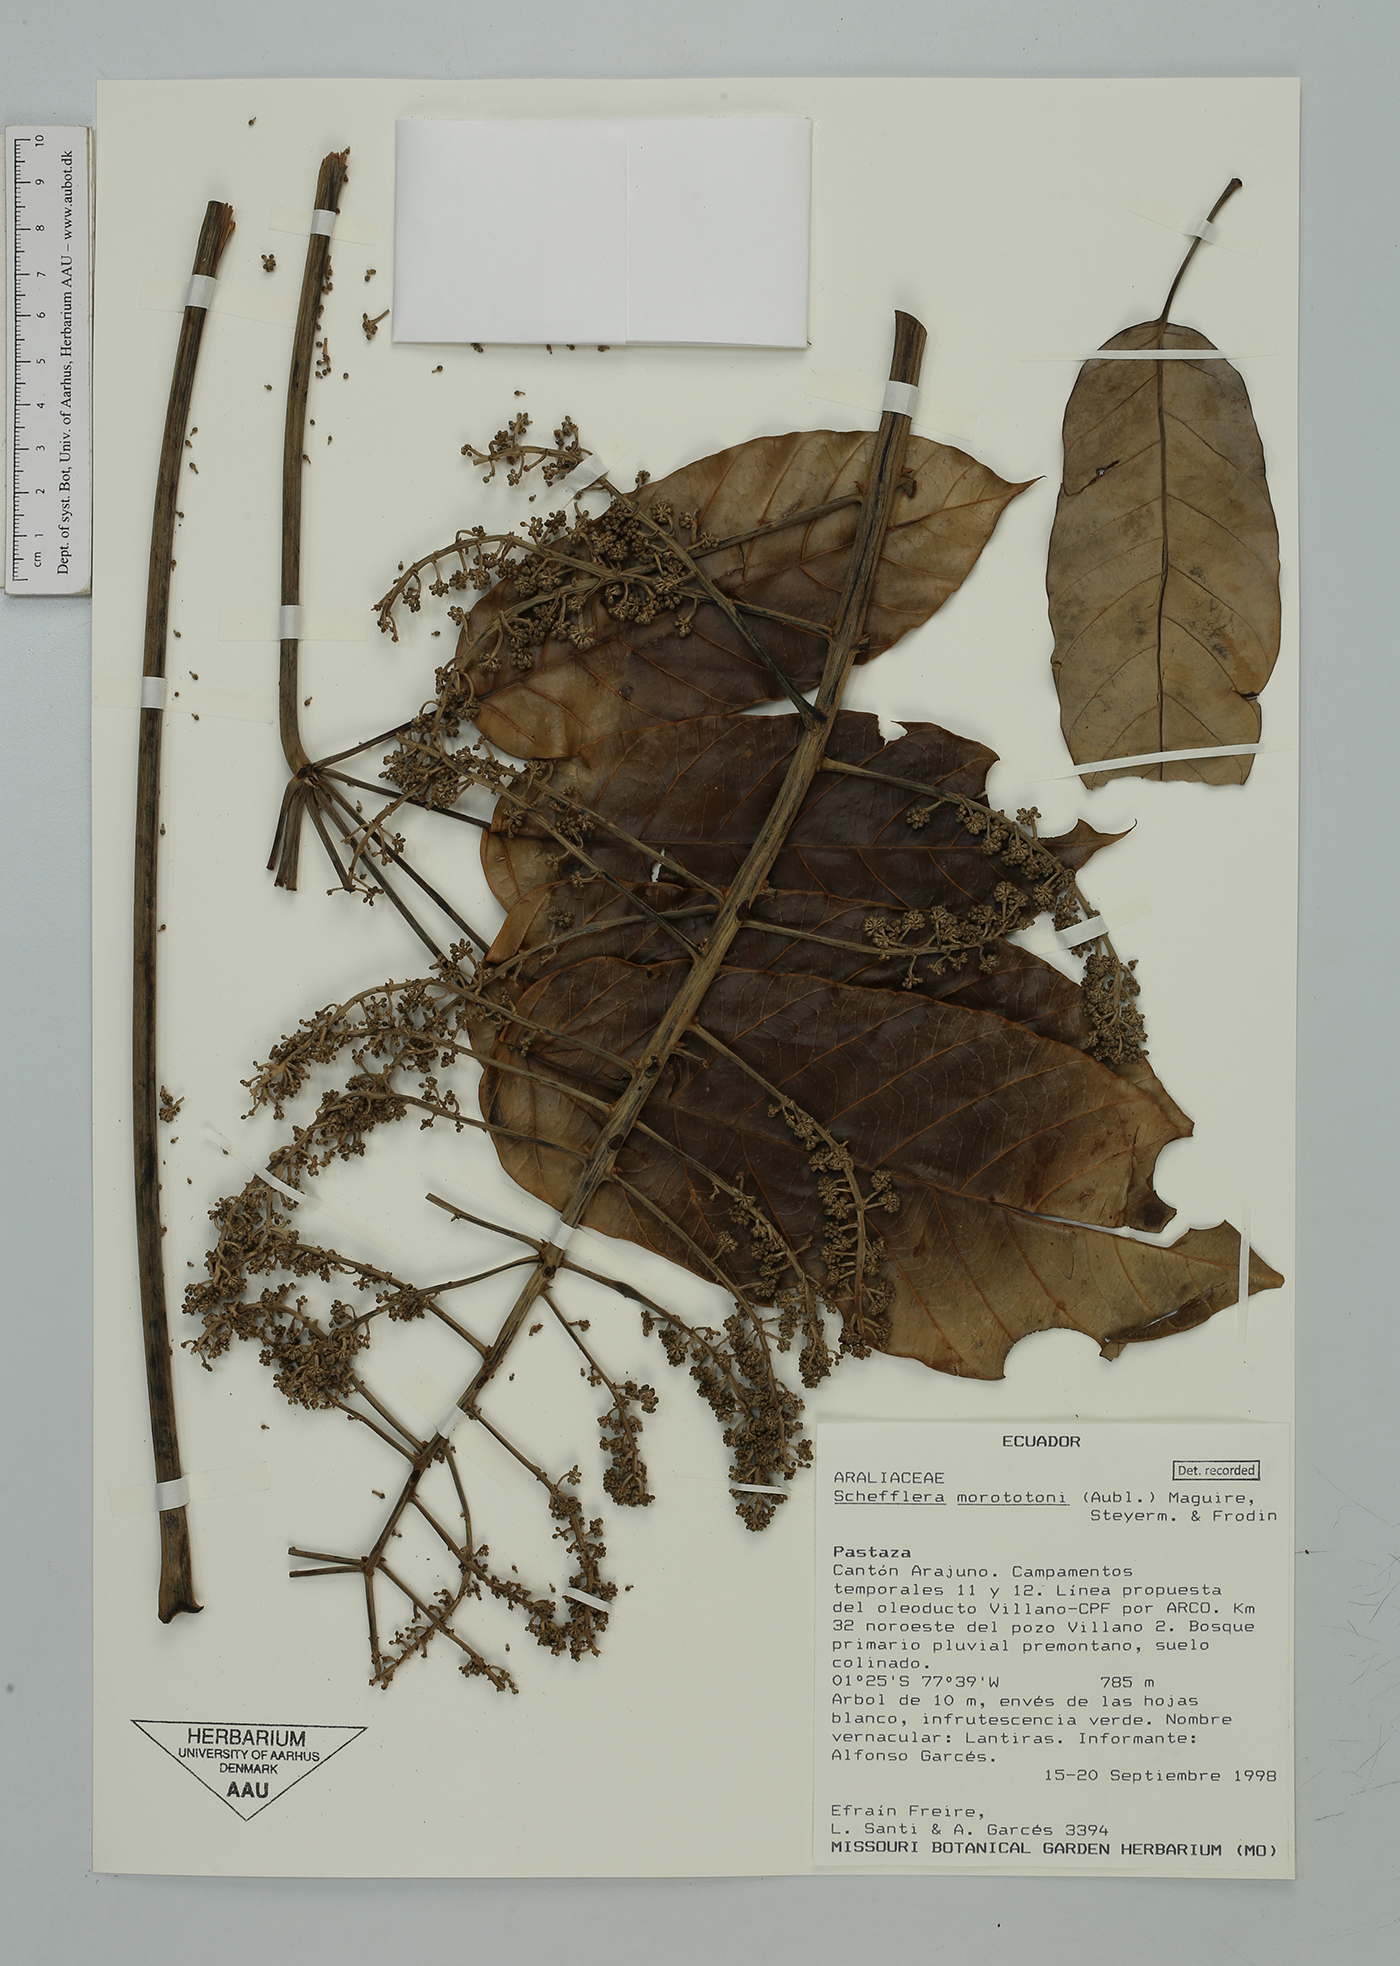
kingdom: Plantae
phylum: Tracheophyta
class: Magnoliopsida
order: Apiales
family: Araliaceae
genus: Didymopanax
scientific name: Didymopanax morototoni
